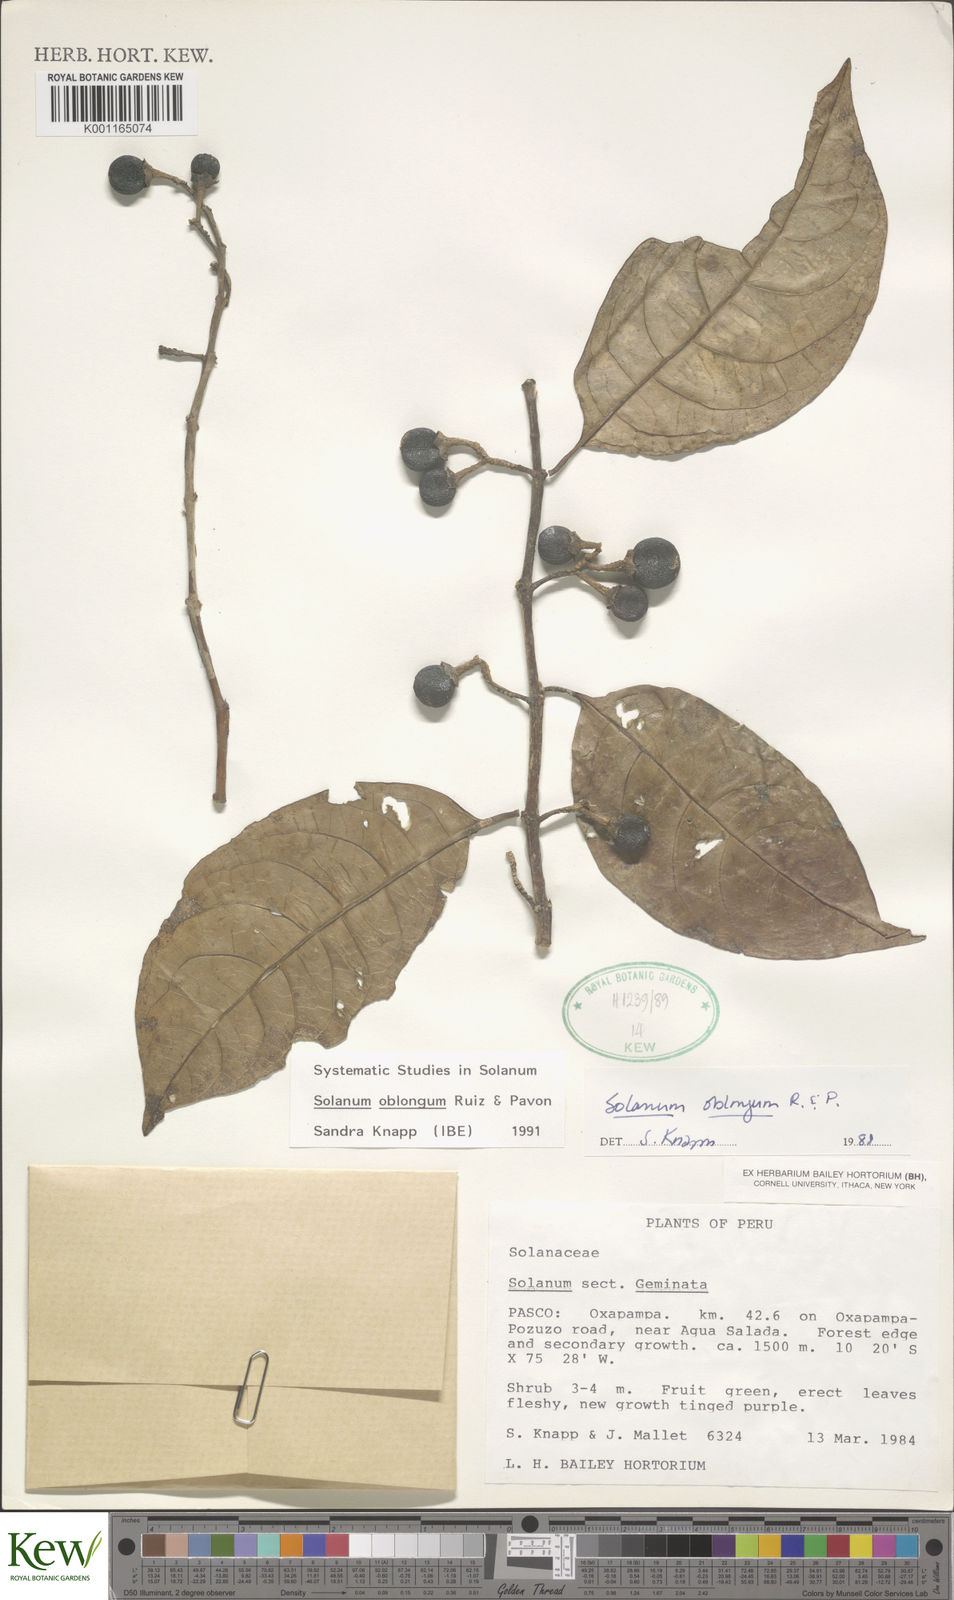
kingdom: Plantae
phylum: Tracheophyta
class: Magnoliopsida
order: Solanales
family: Solanaceae
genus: Solanum
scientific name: Solanum oblongum
